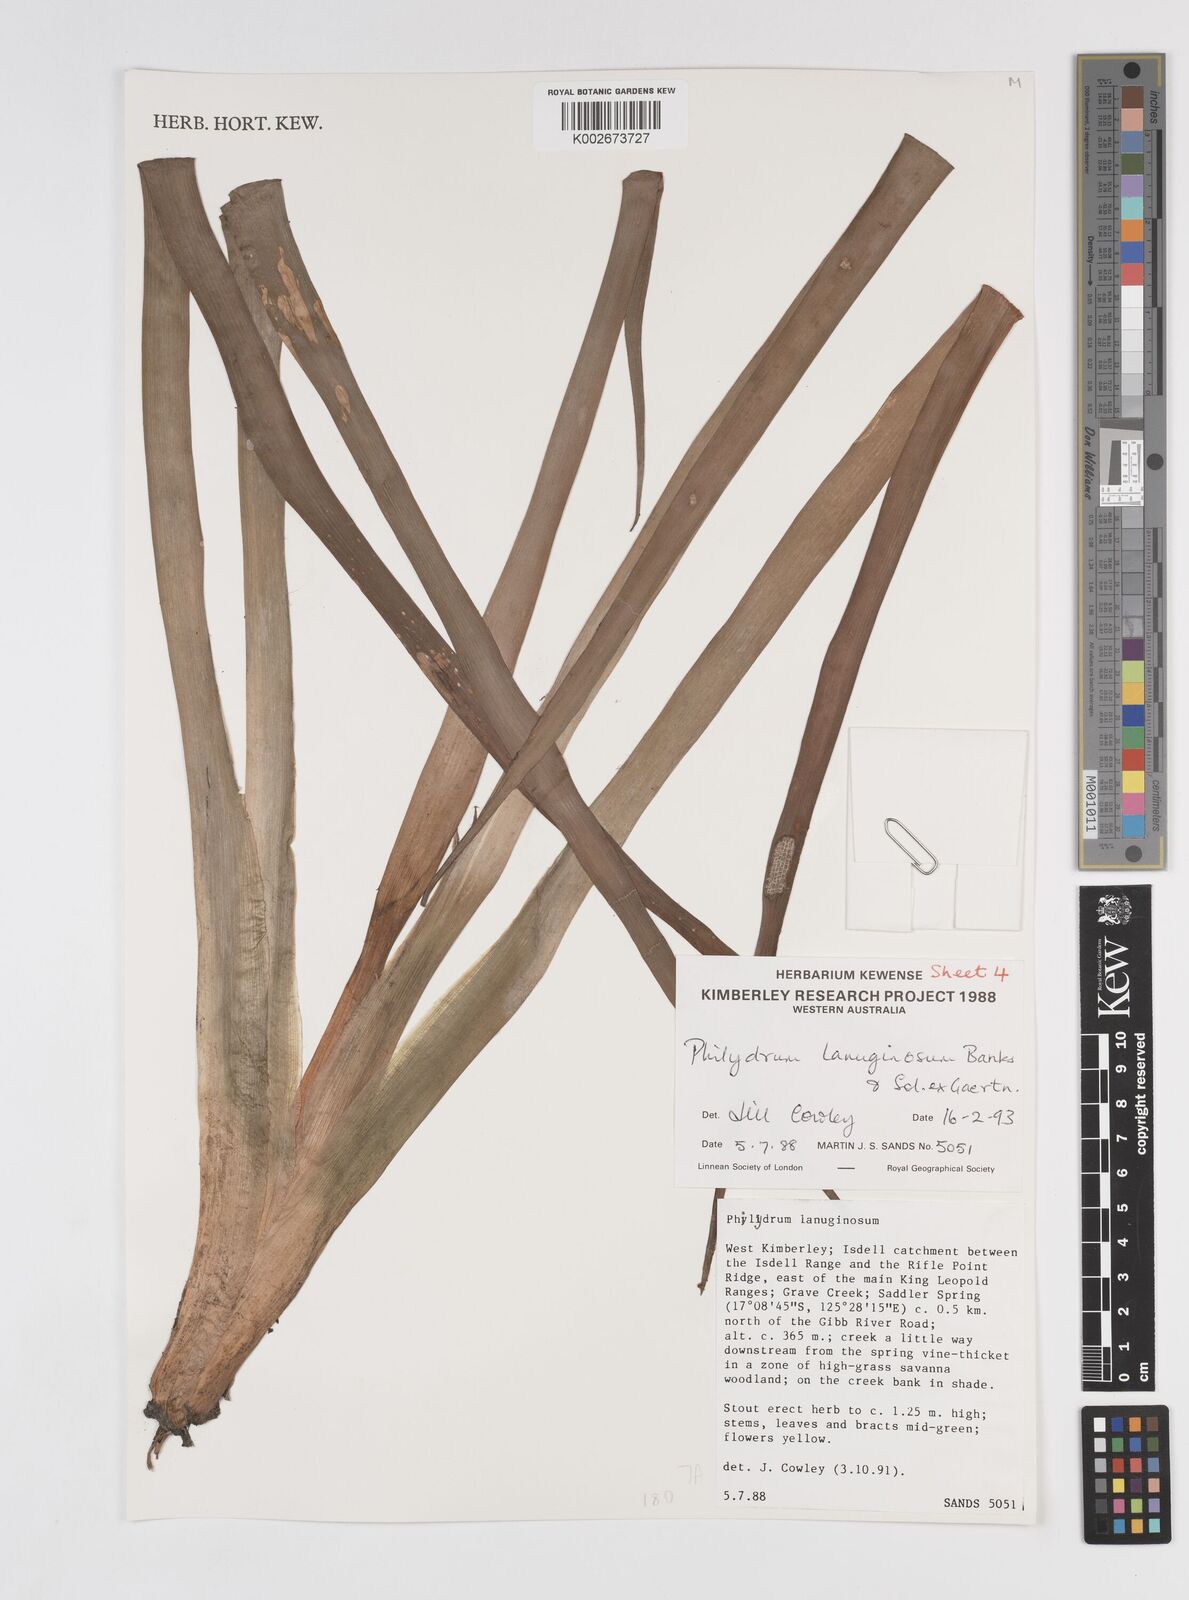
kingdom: Plantae
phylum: Tracheophyta
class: Liliopsida
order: Commelinales
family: Philydraceae
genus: Philydrum
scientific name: Philydrum lanuginosum
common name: Woolly frog's mouth
